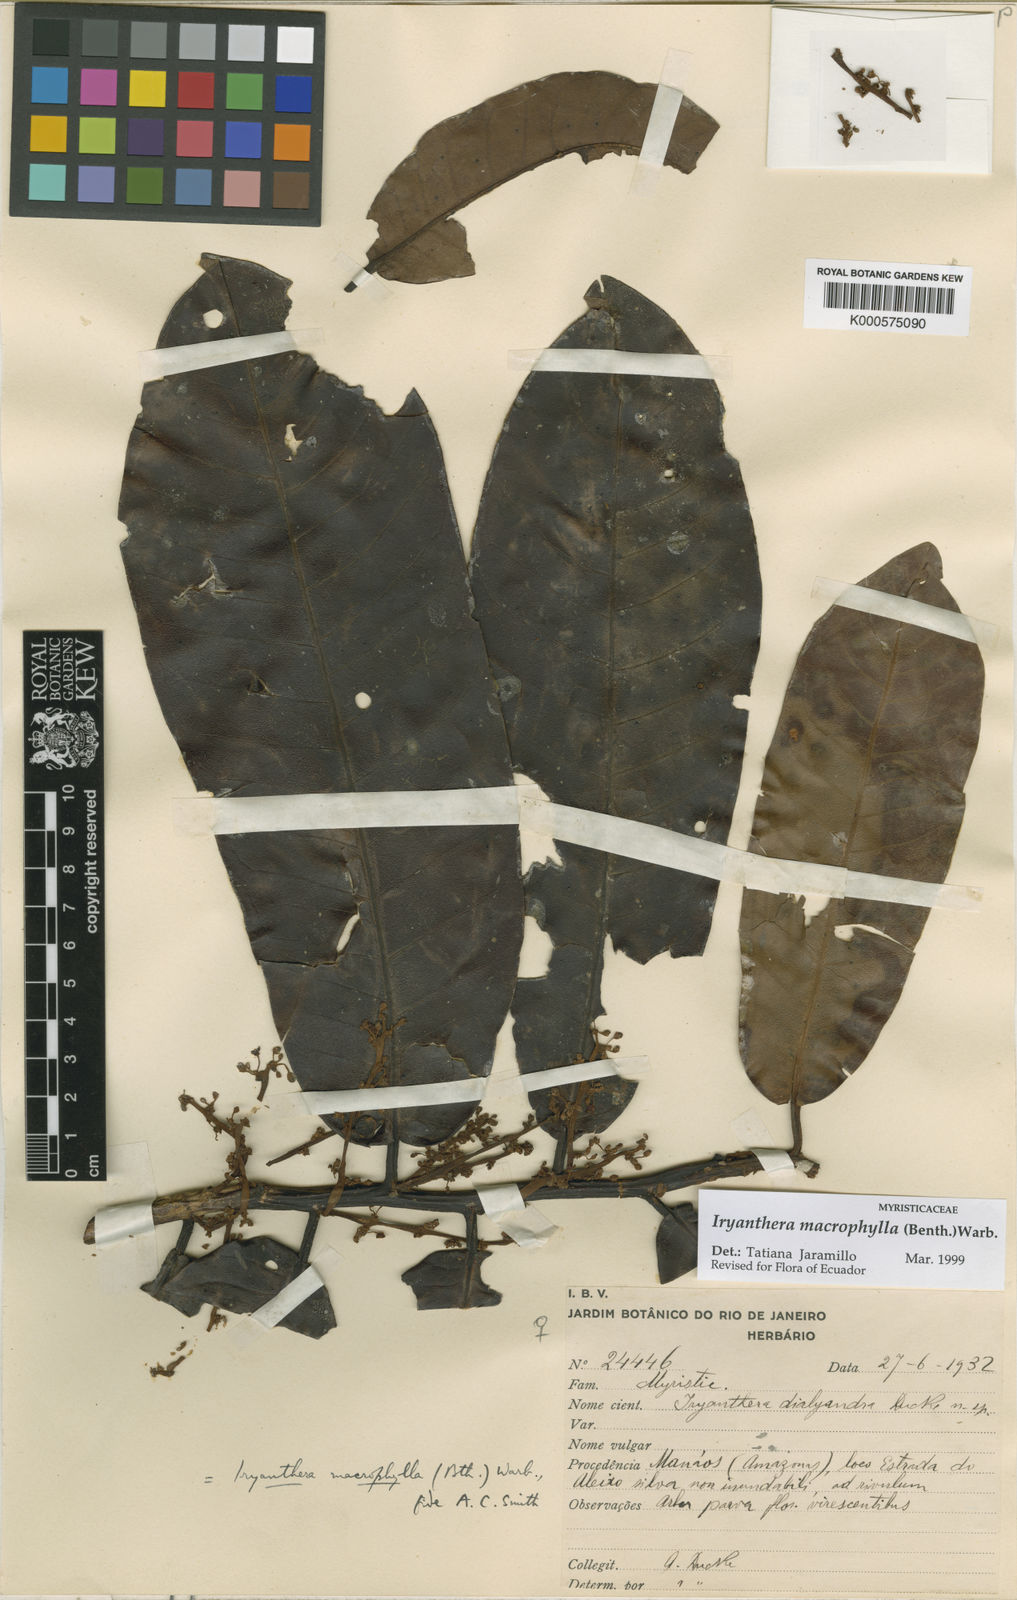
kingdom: Plantae
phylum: Tracheophyta
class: Magnoliopsida
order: Magnoliales
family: Myristicaceae
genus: Iryanthera
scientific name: Iryanthera macrophylla
